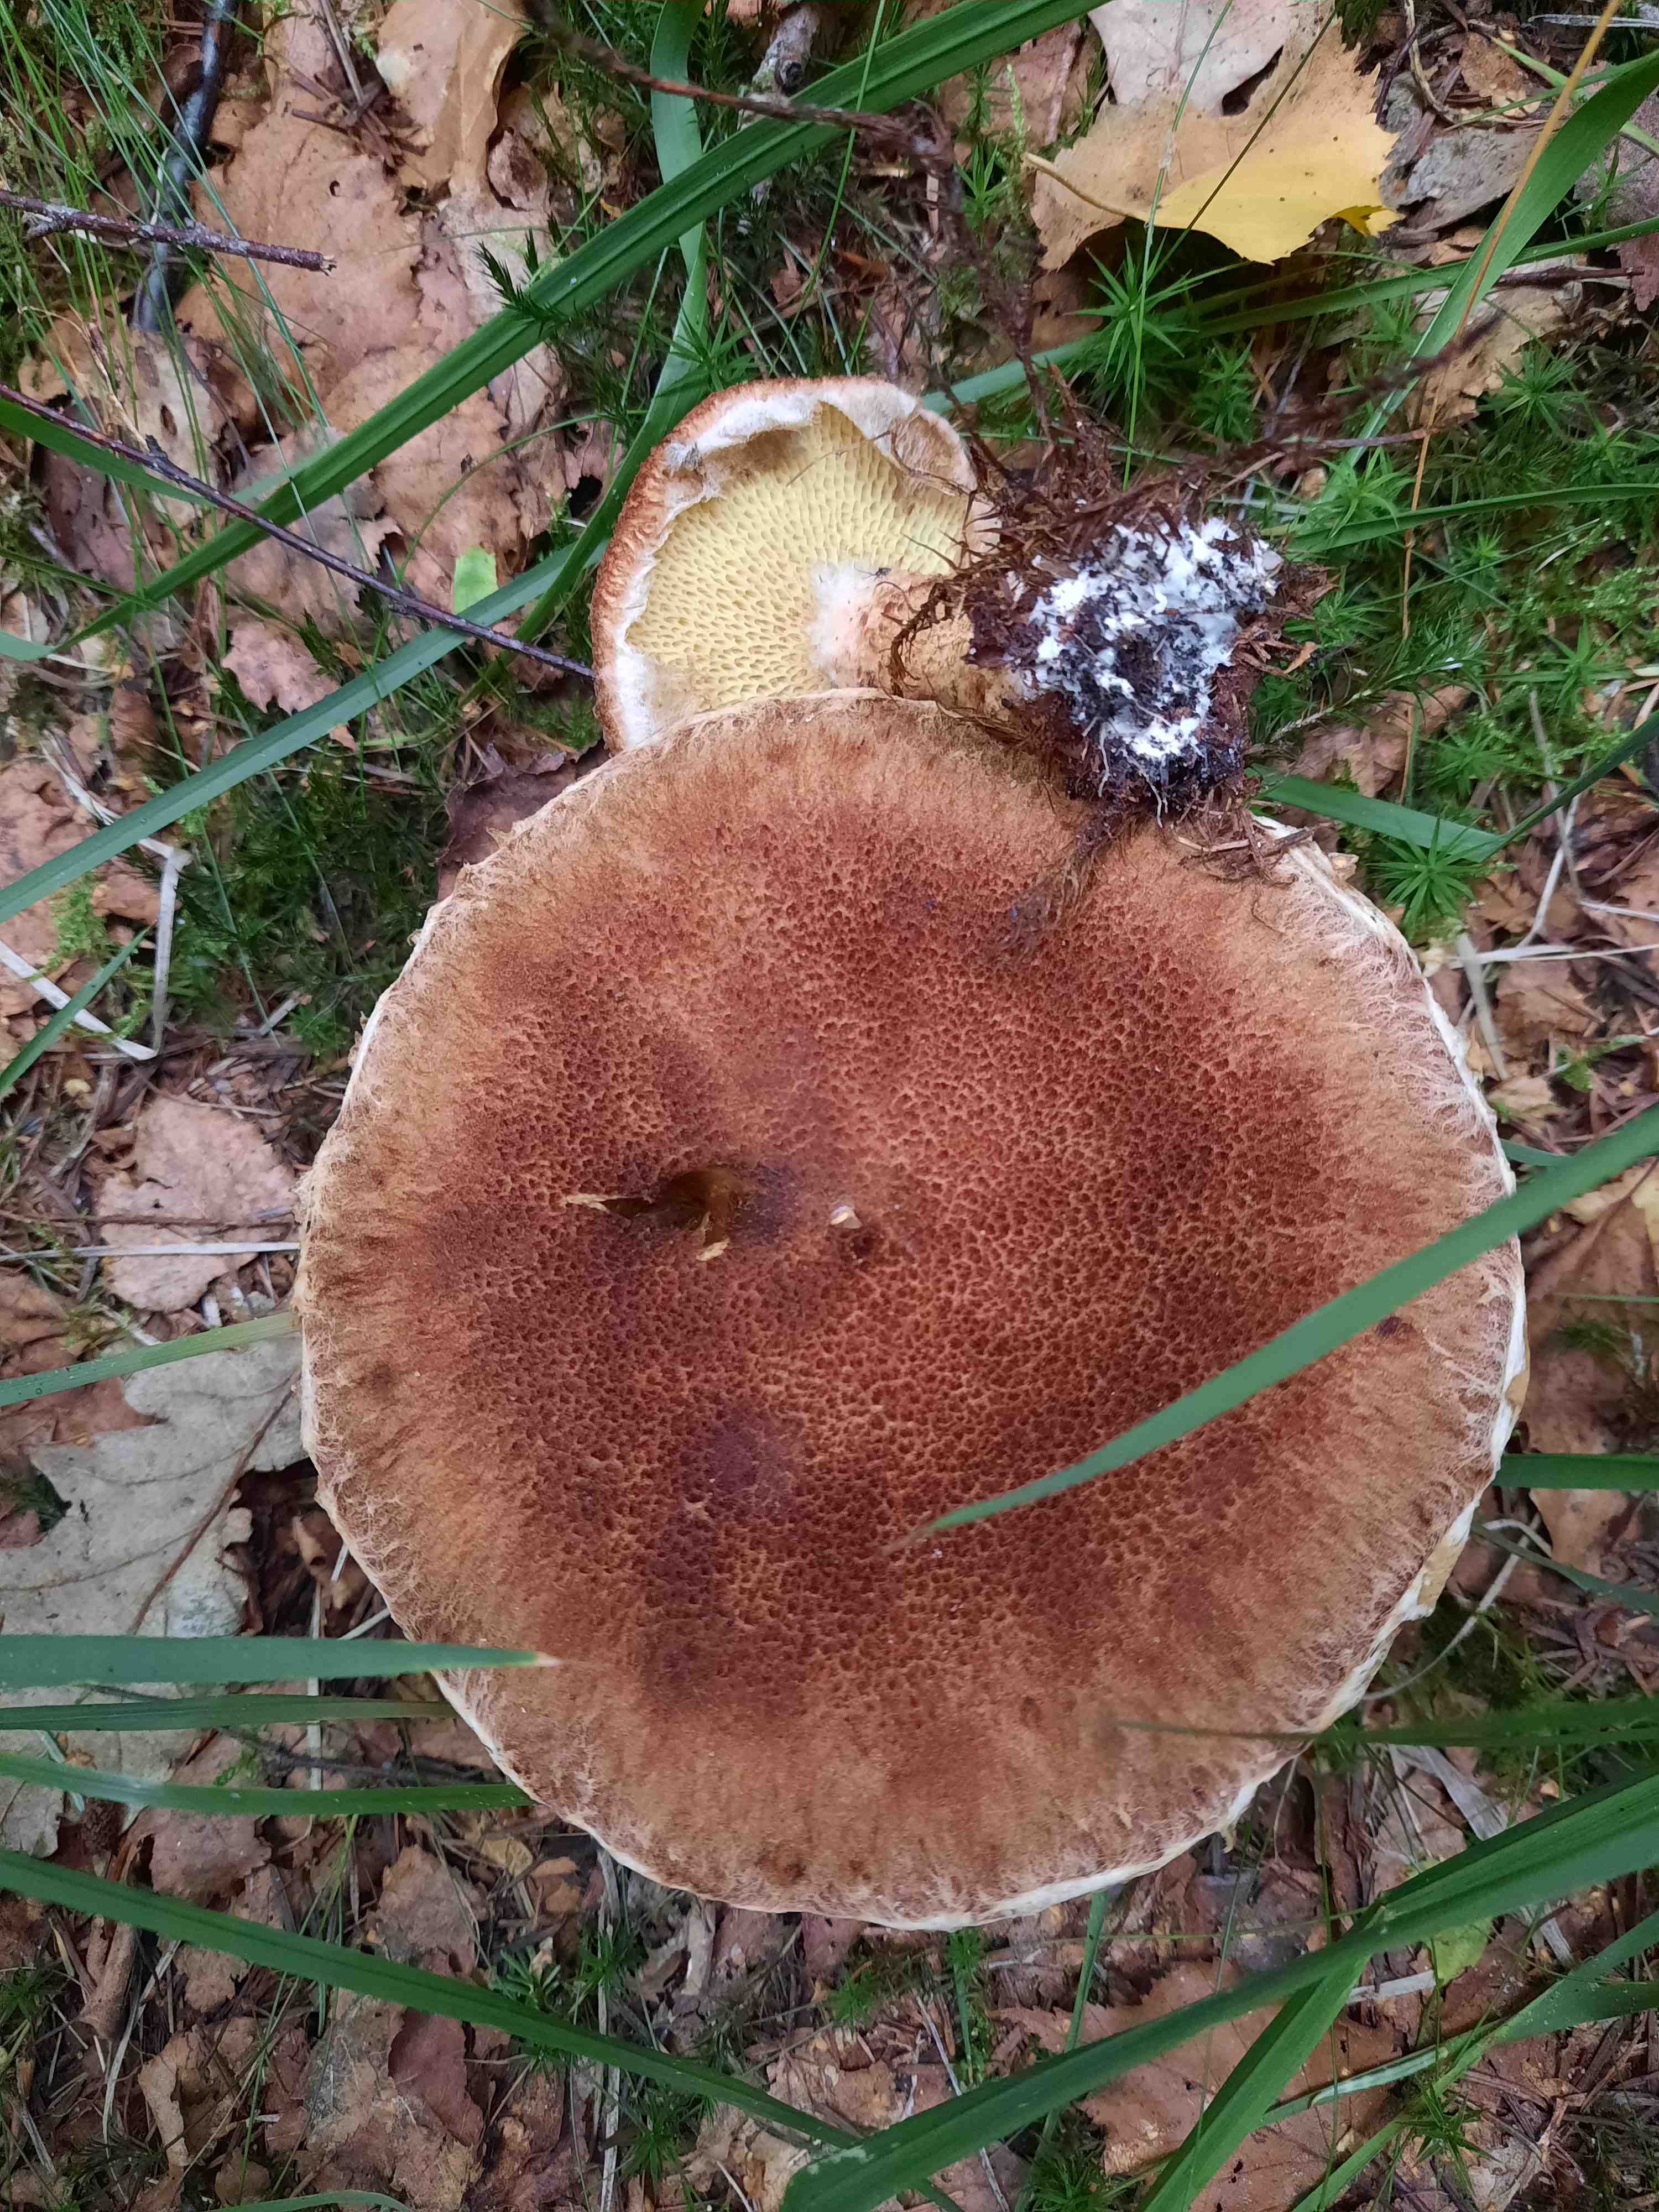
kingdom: Fungi
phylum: Basidiomycota
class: Agaricomycetes
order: Boletales
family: Suillaceae
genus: Suillus
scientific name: Suillus cavipes
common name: hulstokket slimrørhat
